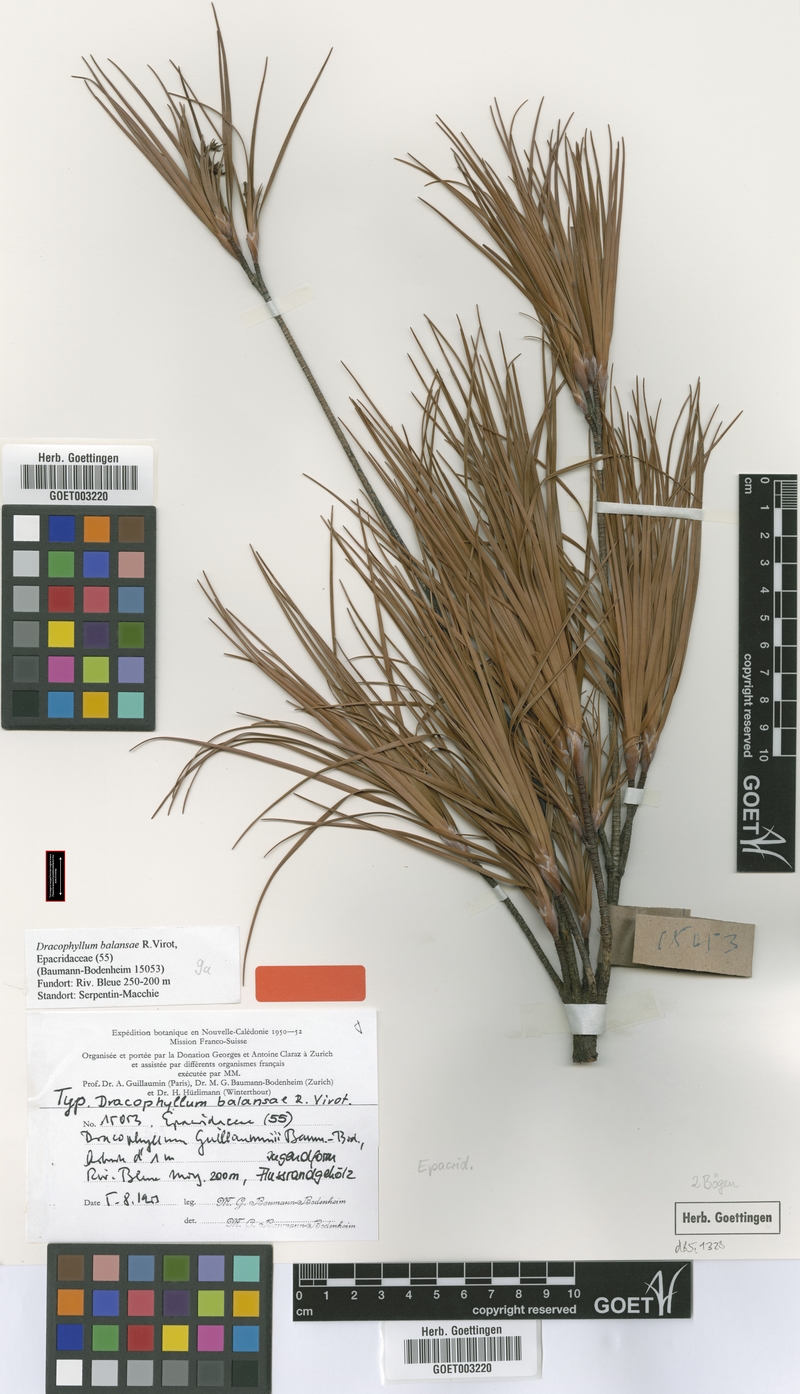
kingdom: Plantae
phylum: Tracheophyta
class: Magnoliopsida
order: Ericales
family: Ericaceae
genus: Dracophyllum
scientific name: Dracophyllum balansae
